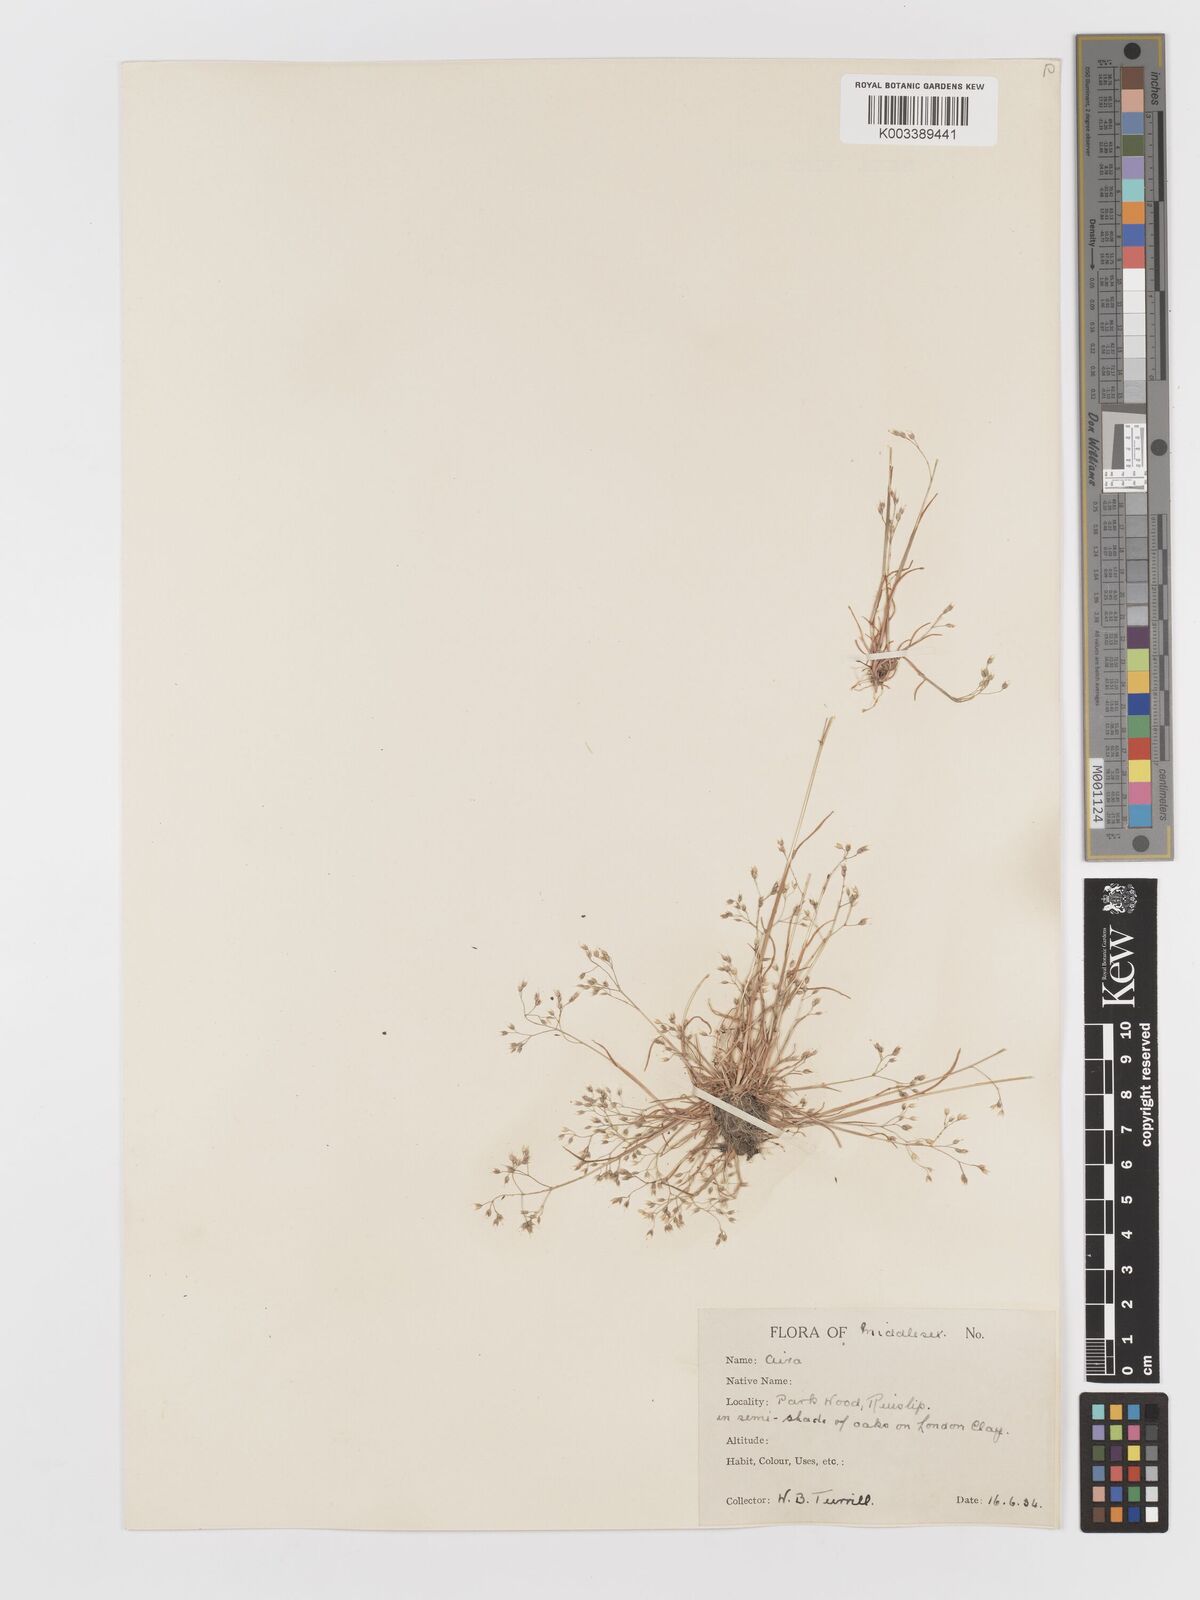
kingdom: Plantae
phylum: Tracheophyta
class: Liliopsida
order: Poales
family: Poaceae
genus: Aira
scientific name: Aira caryophyllea
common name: Silver hairgrass
